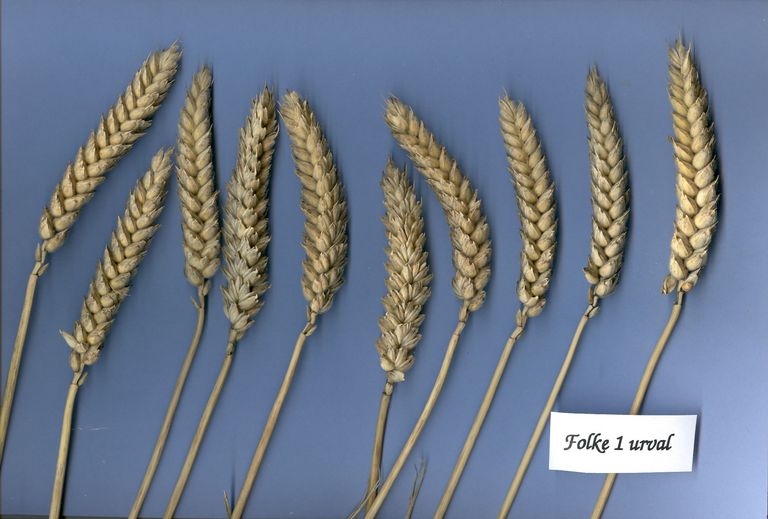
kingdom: Plantae
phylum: Tracheophyta
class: Liliopsida
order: Poales
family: Poaceae
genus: Triticum
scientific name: Triticum aestivum
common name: Common wheat
